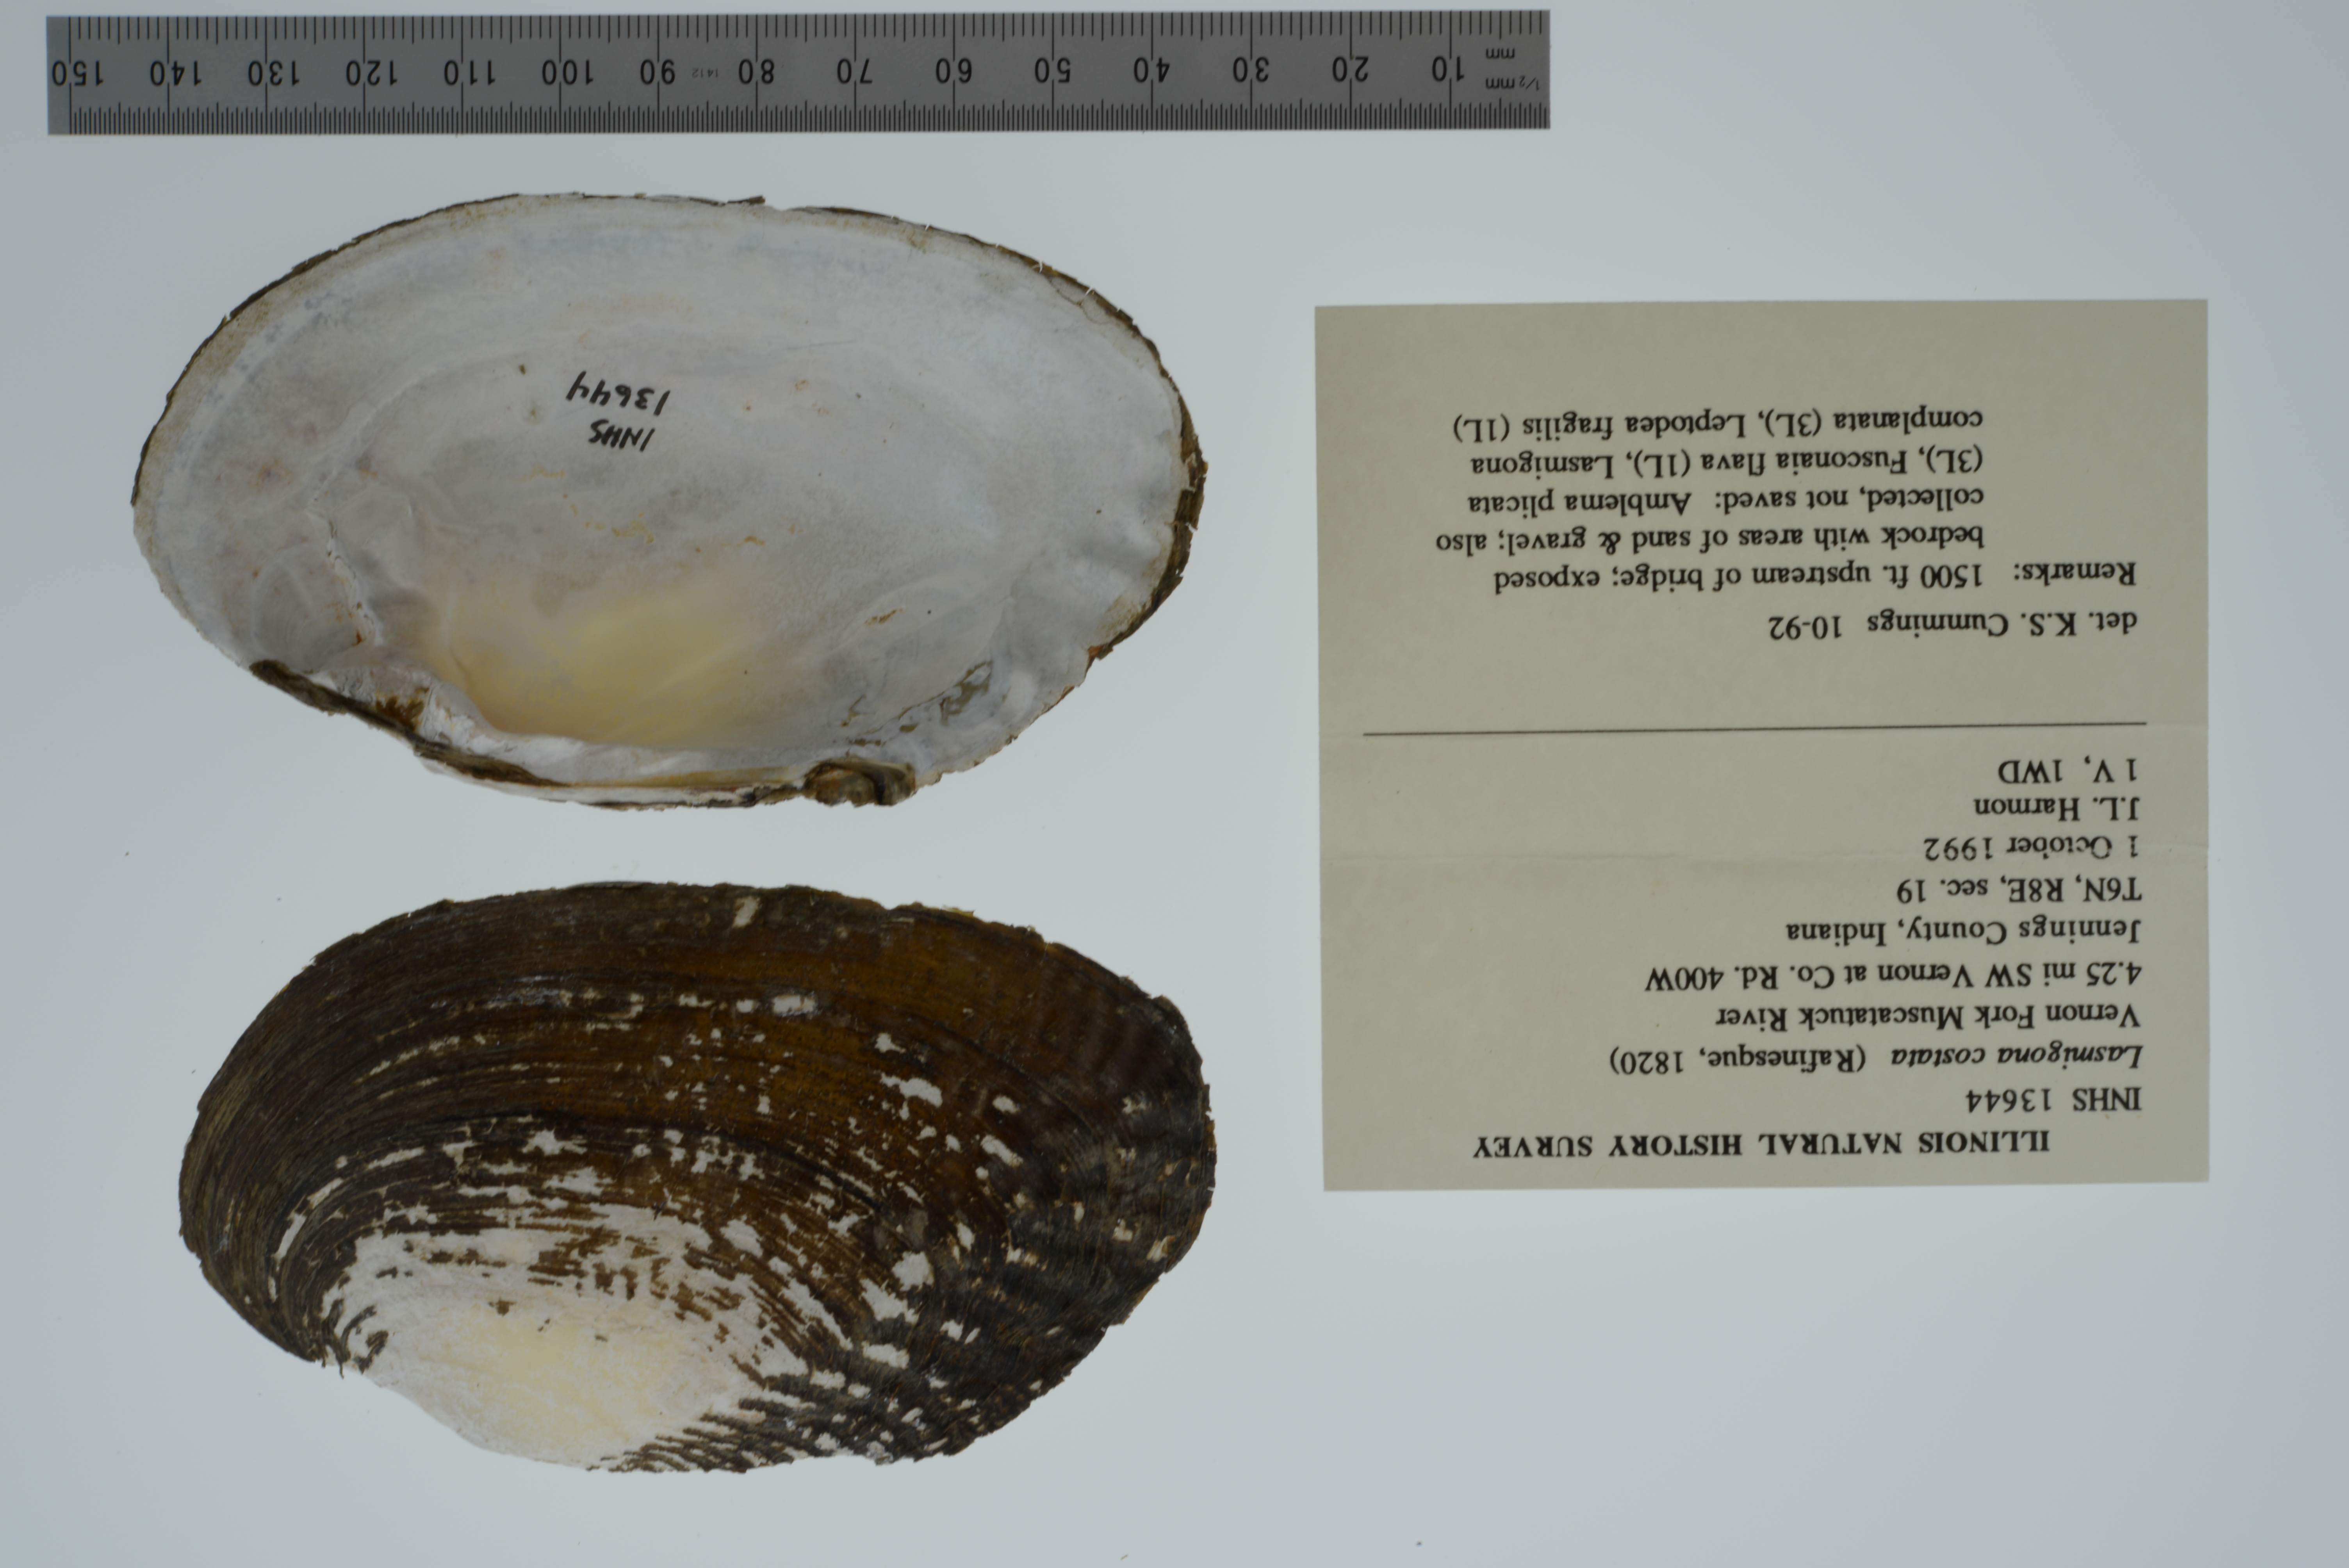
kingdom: Animalia
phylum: Mollusca
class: Bivalvia
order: Unionida
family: Unionidae
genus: Lasmigona
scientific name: Lasmigona costata
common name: Flutedshell
